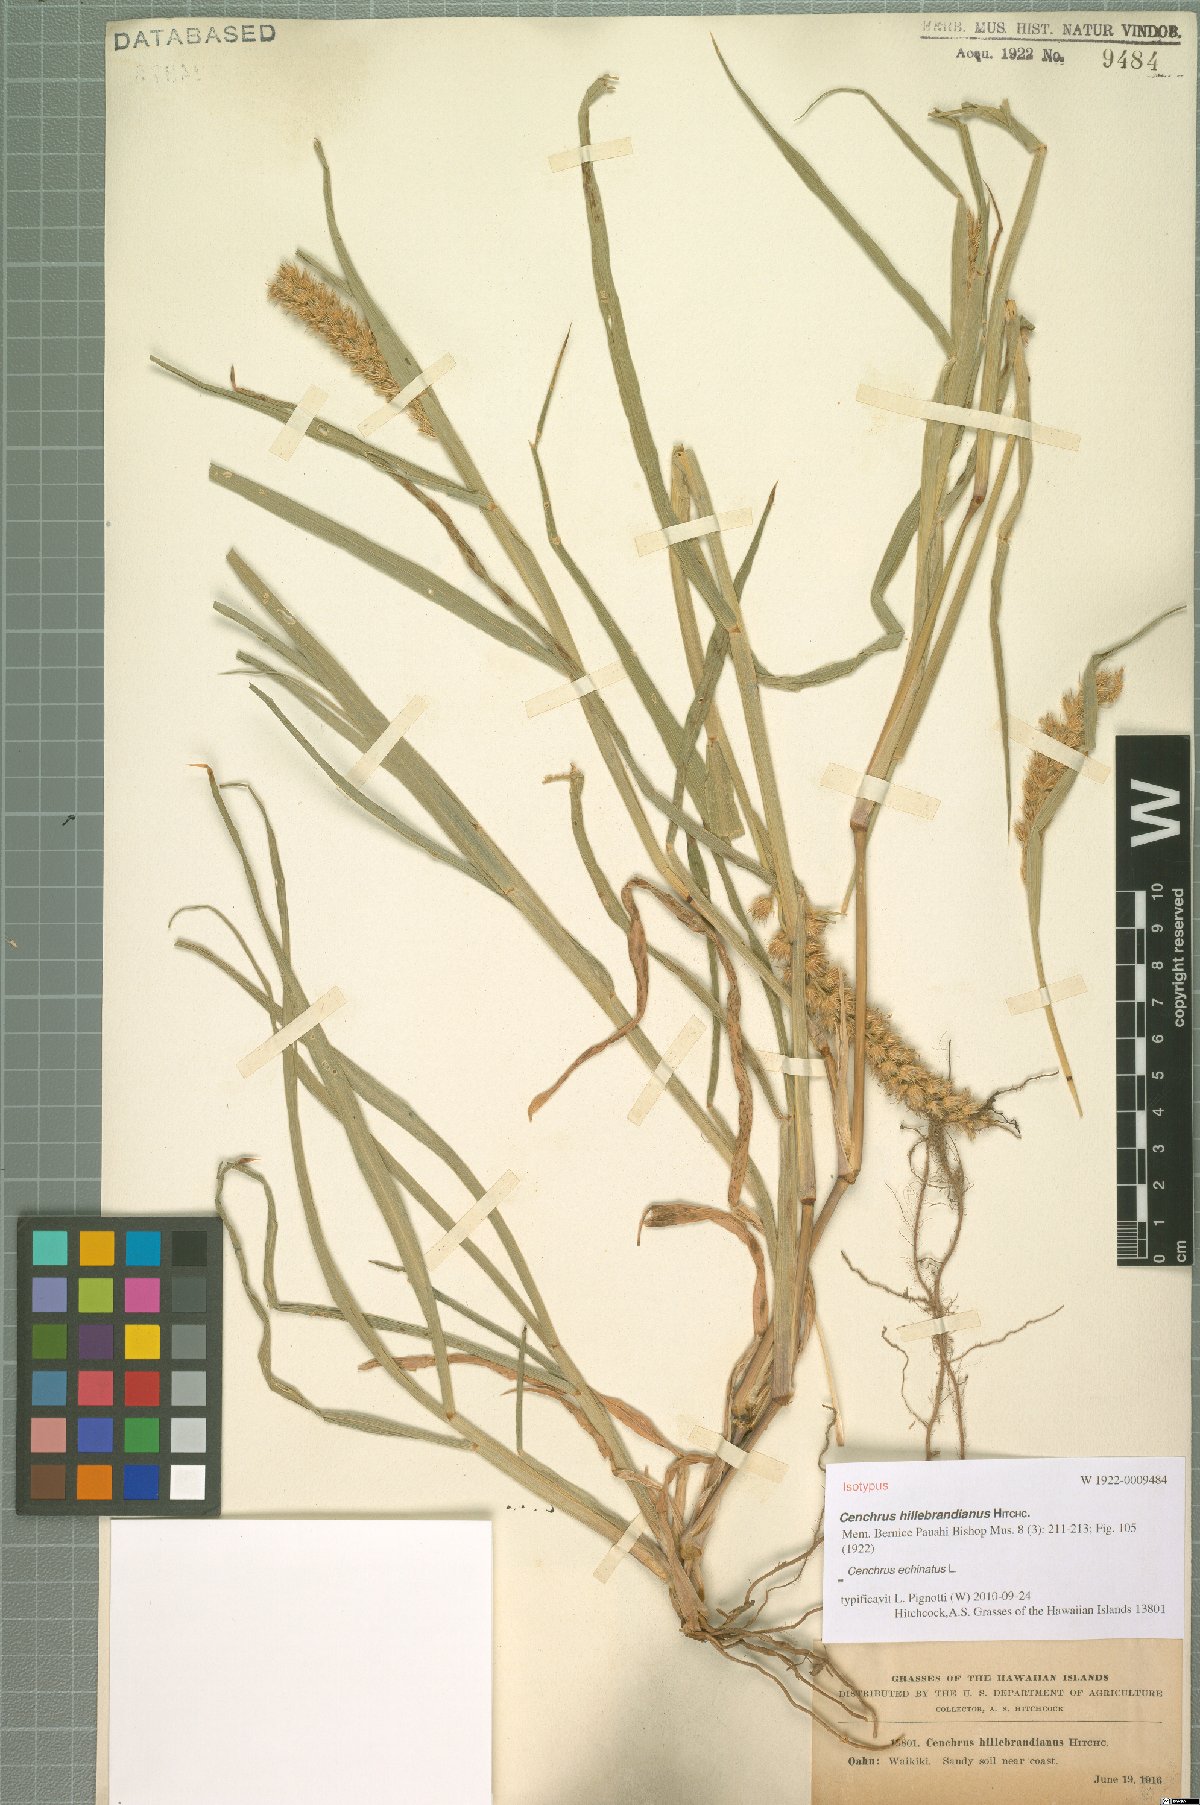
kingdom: Plantae
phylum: Tracheophyta
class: Liliopsida
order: Poales
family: Poaceae
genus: Cenchrus
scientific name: Cenchrus echinatus
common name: Southern sandbur
